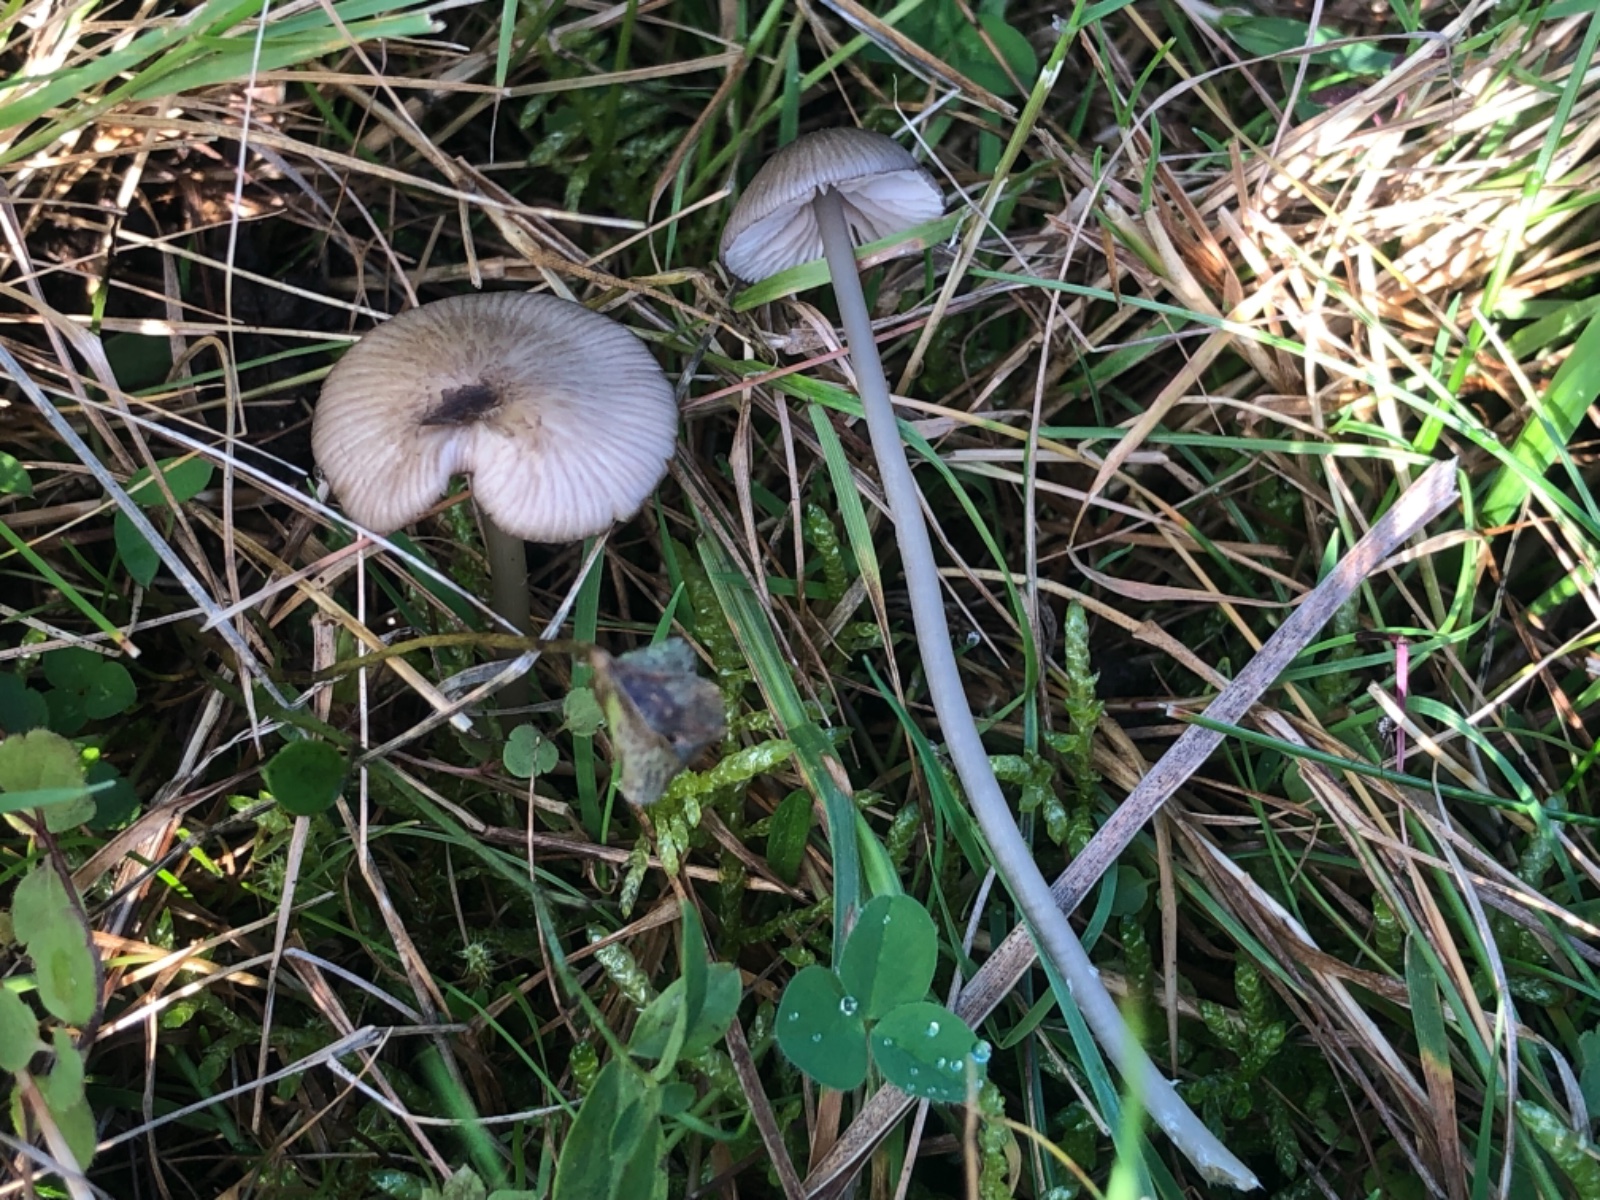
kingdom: Fungi
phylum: Basidiomycota
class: Agaricomycetes
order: Agaricales
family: Entolomataceae
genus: Entoloma
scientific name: Entoloma exile
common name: rødplettet rødblad
